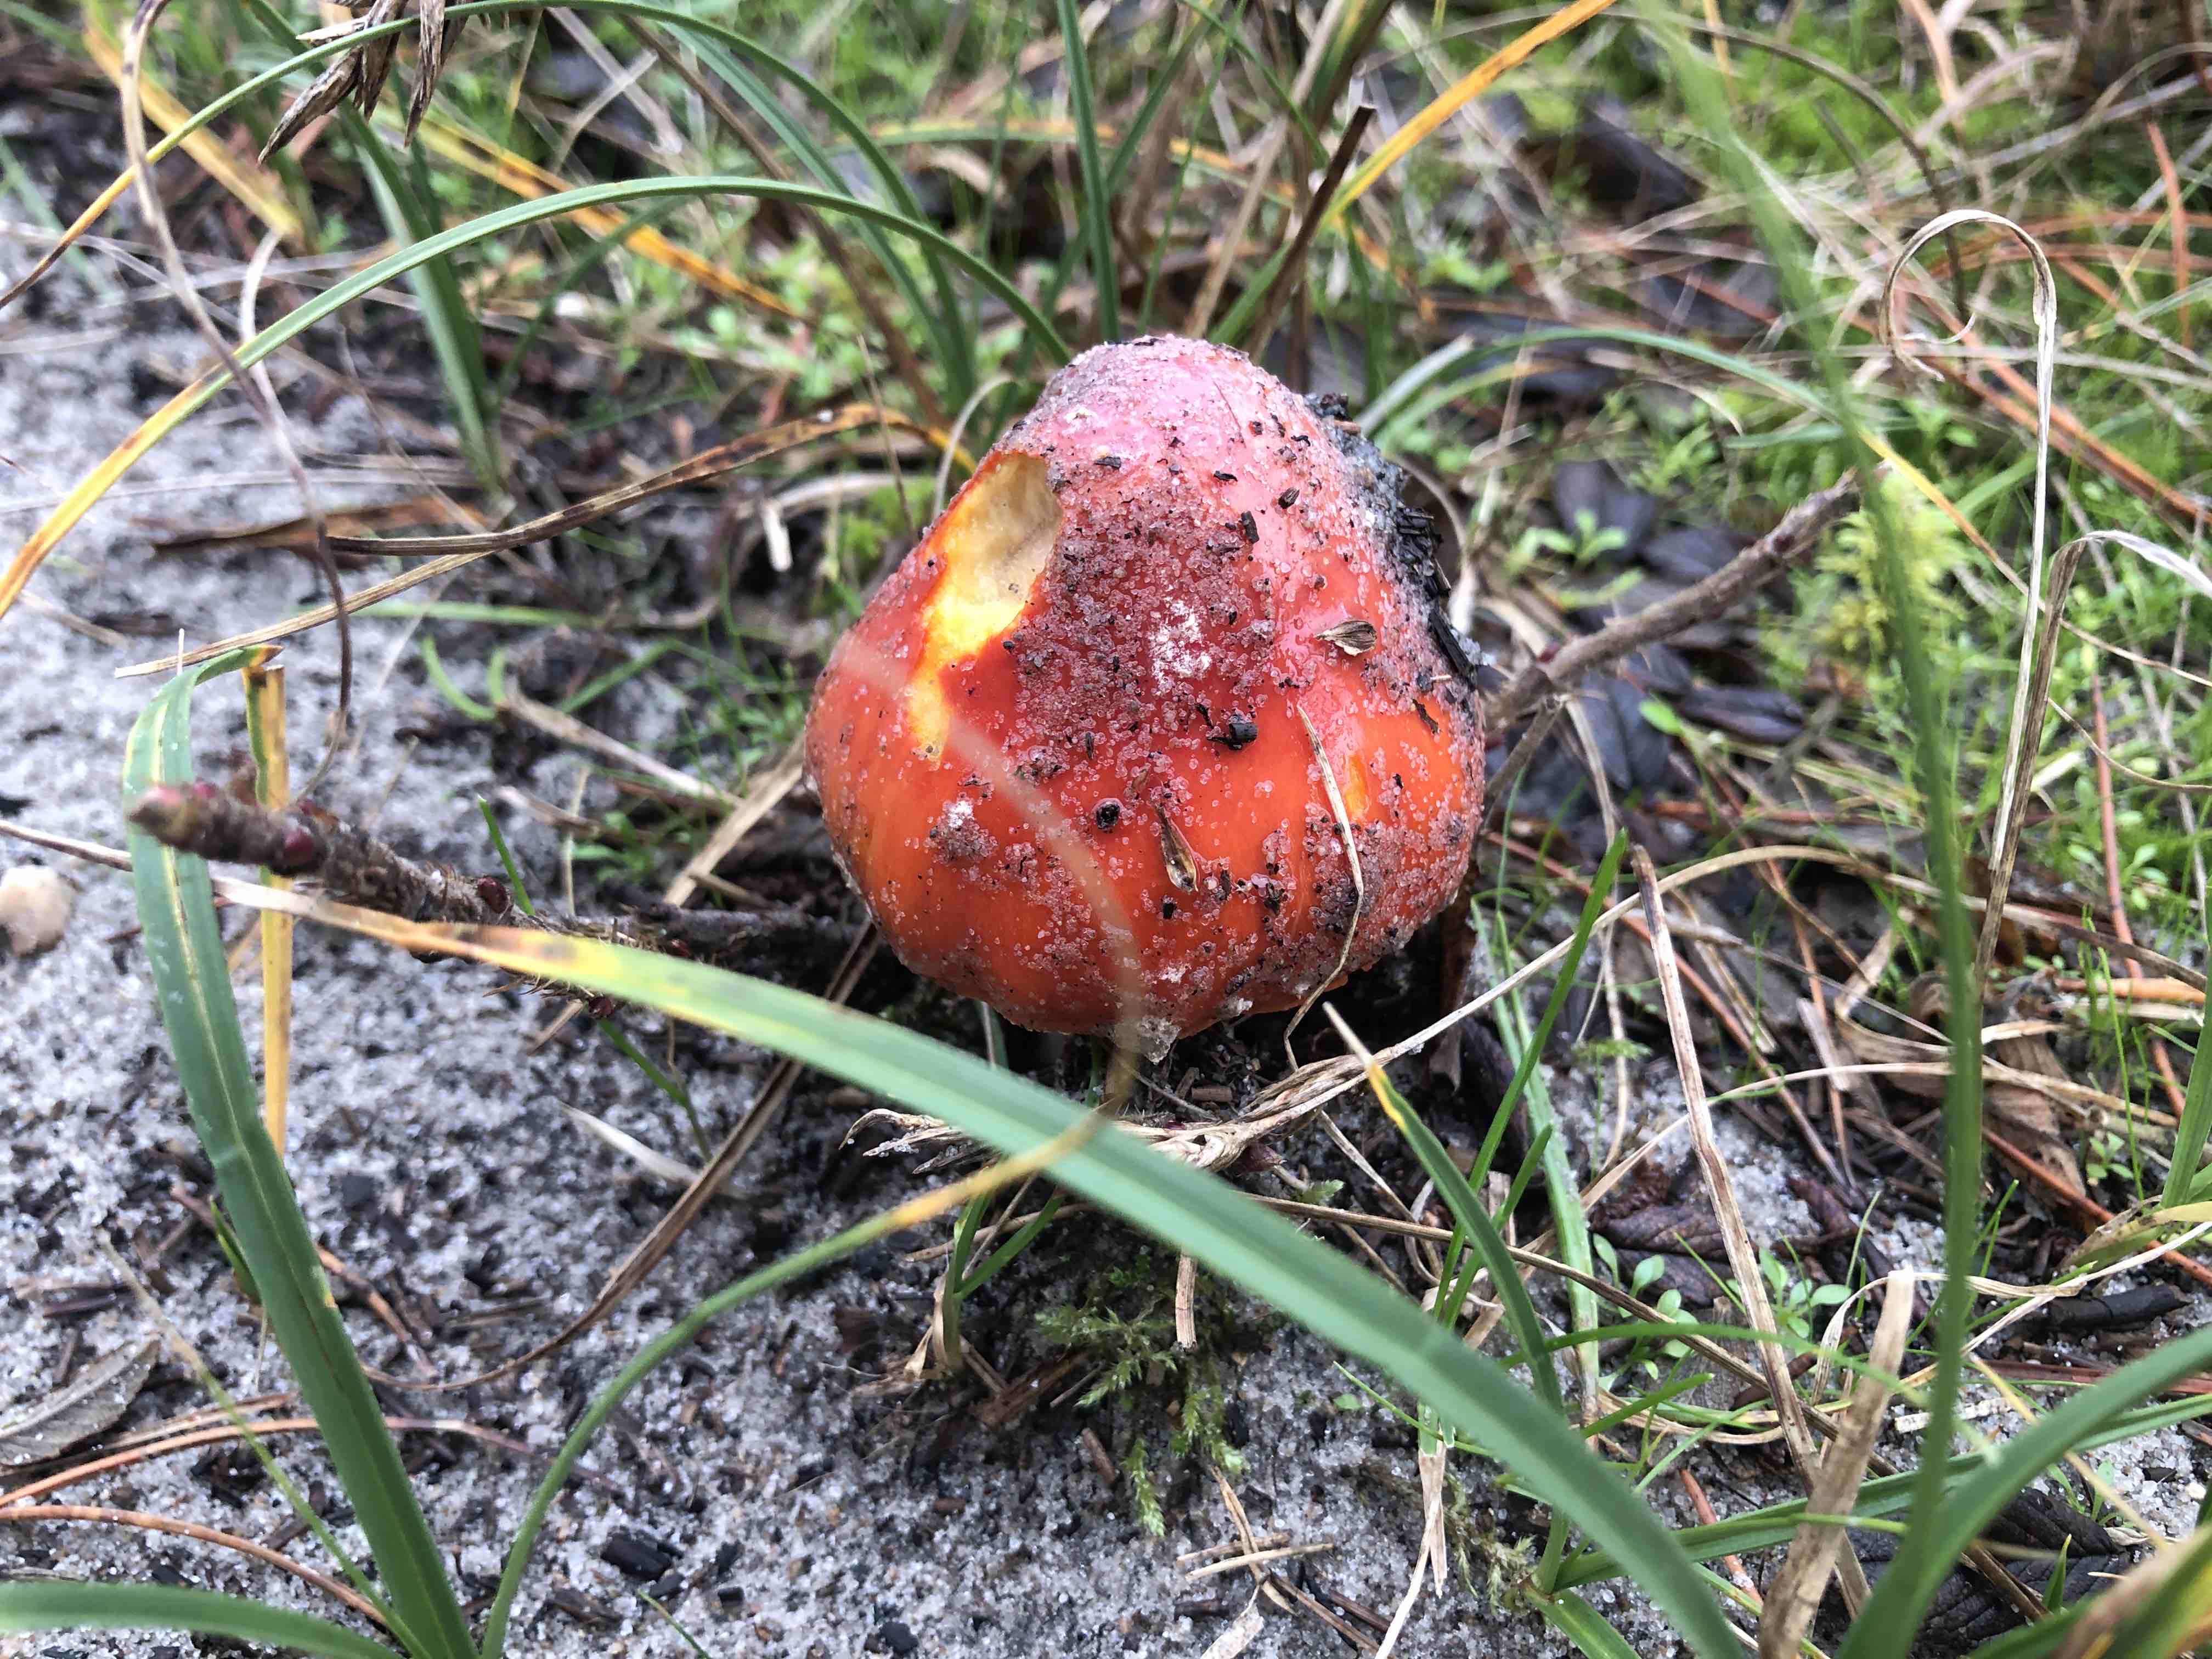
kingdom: Fungi
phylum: Basidiomycota
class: Agaricomycetes
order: Agaricales
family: Amanitaceae
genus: Amanita
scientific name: Amanita muscaria
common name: rød fluesvamp
